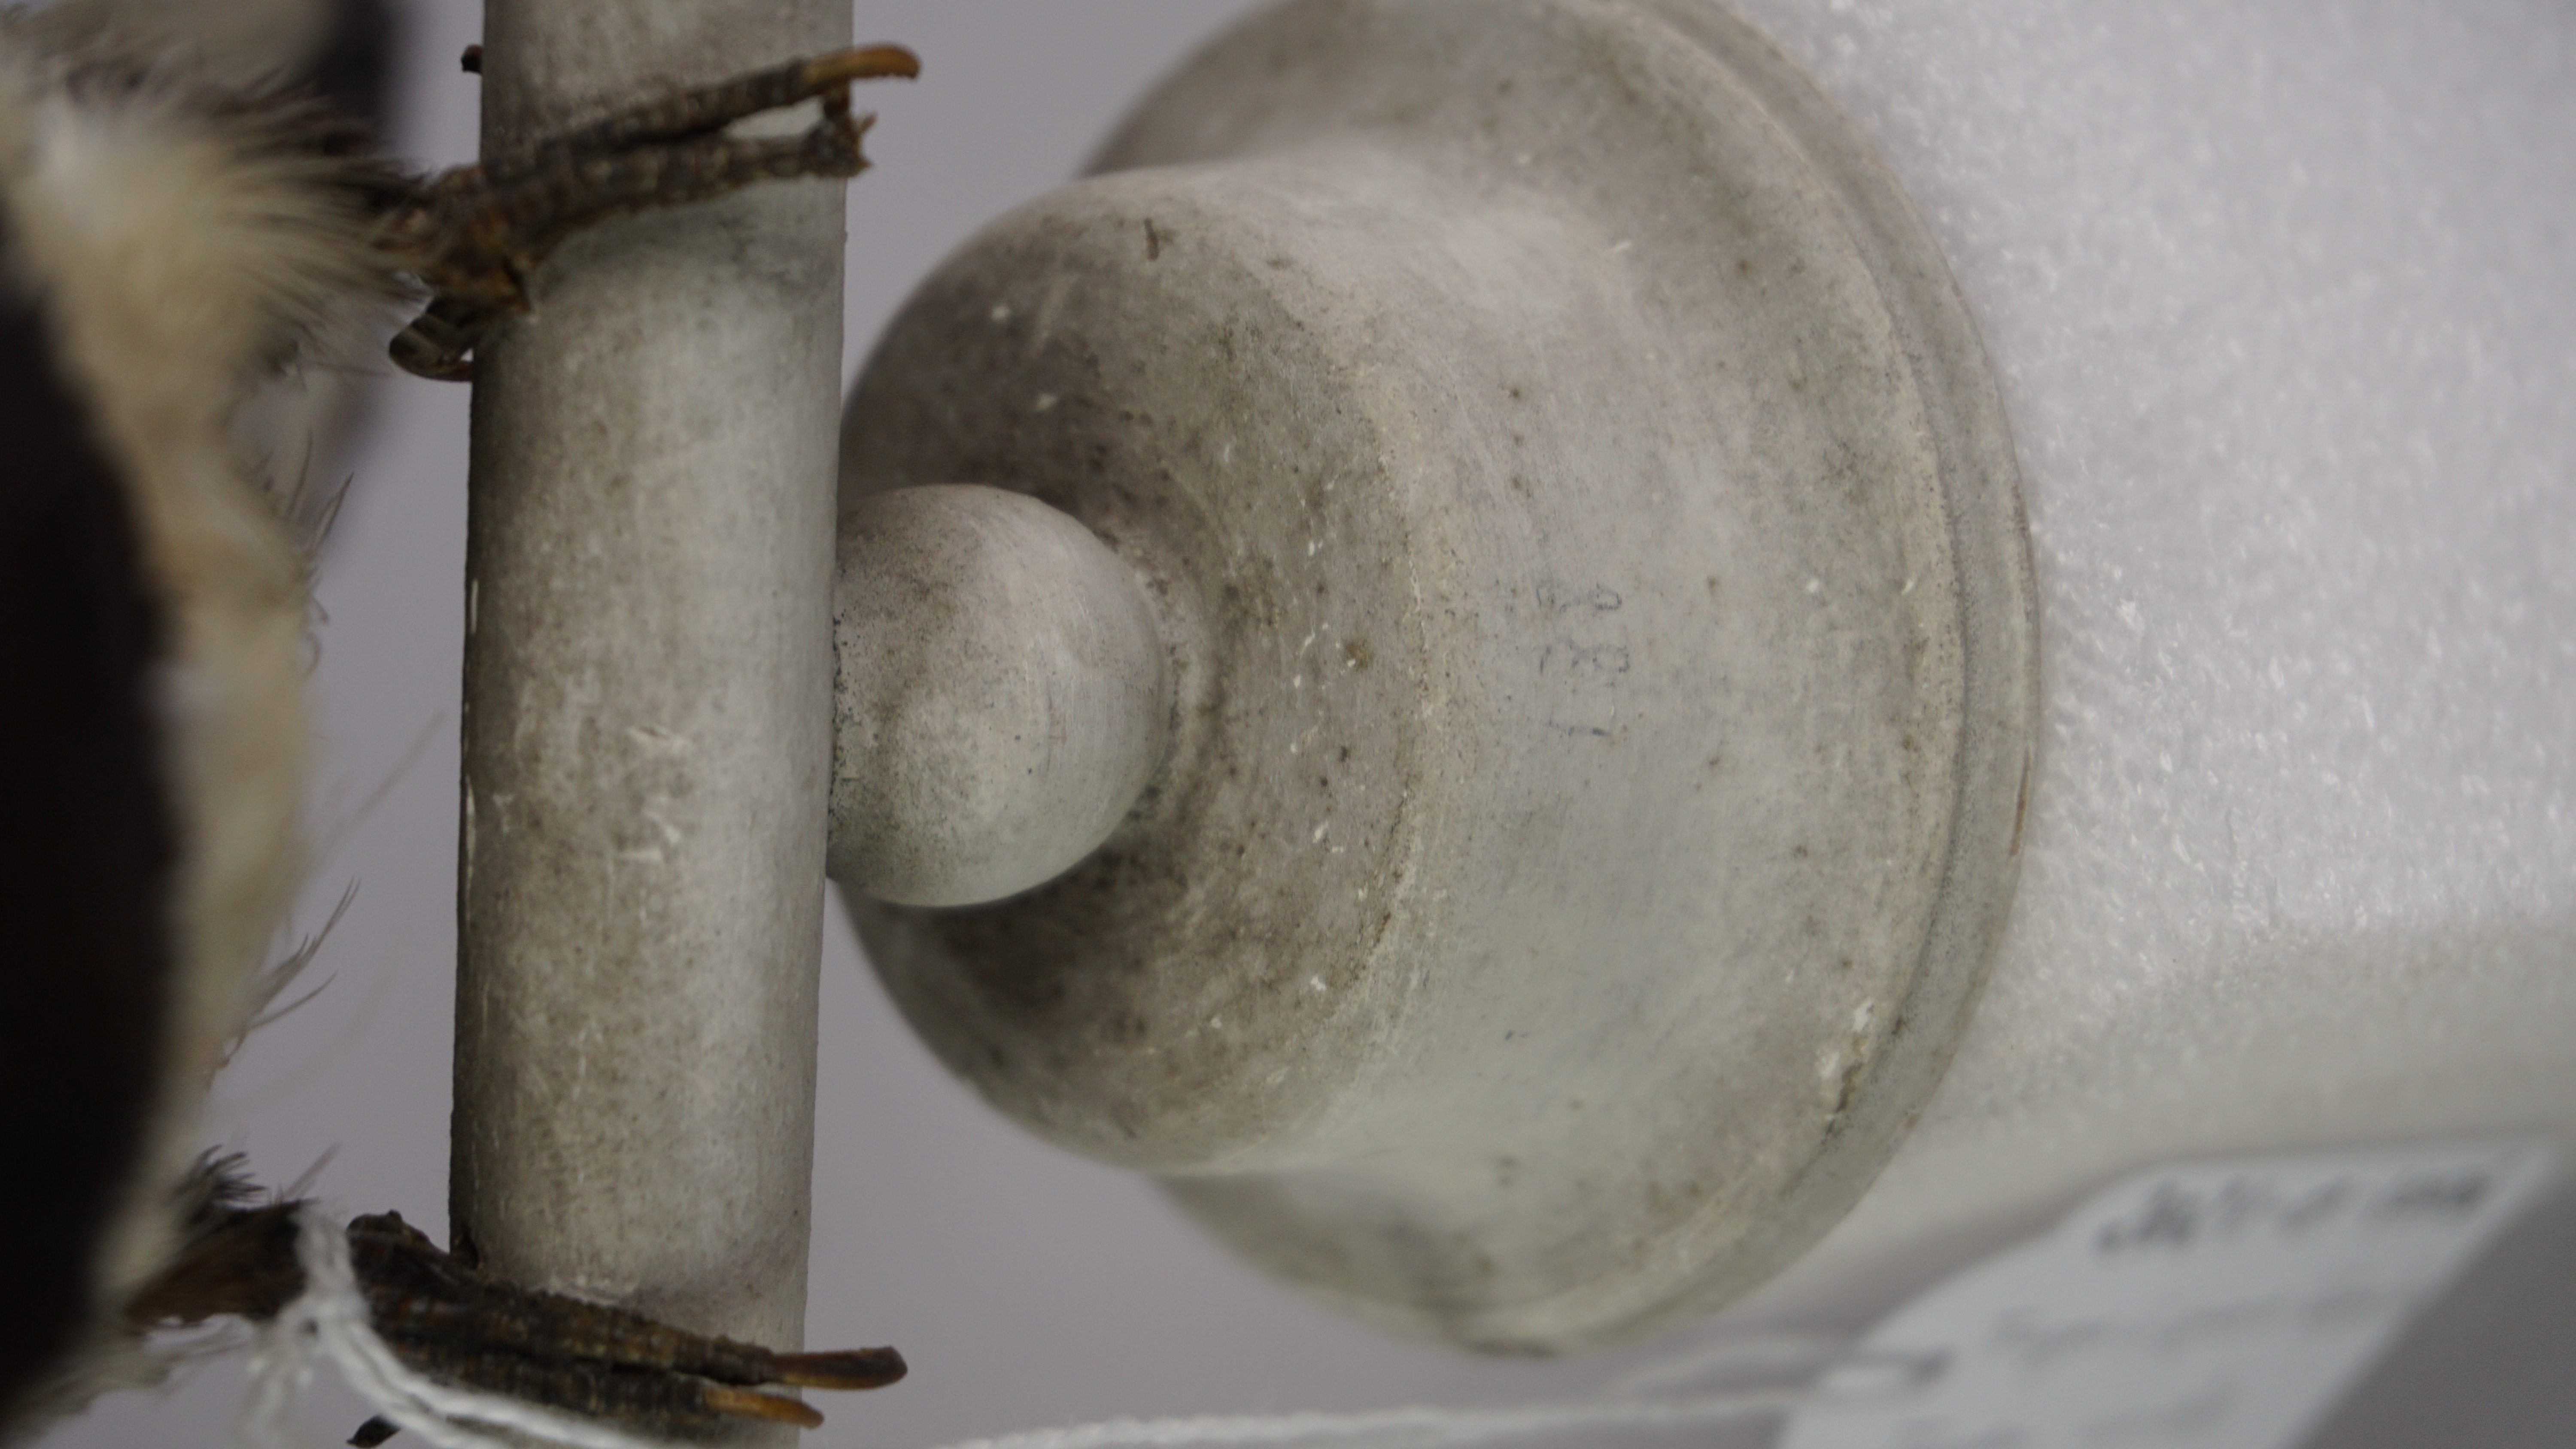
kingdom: Animalia
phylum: Chordata
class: Aves
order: Trogoniformes
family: Trogonidae
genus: Trogon
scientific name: Trogon viridis
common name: Green-backed trogon
